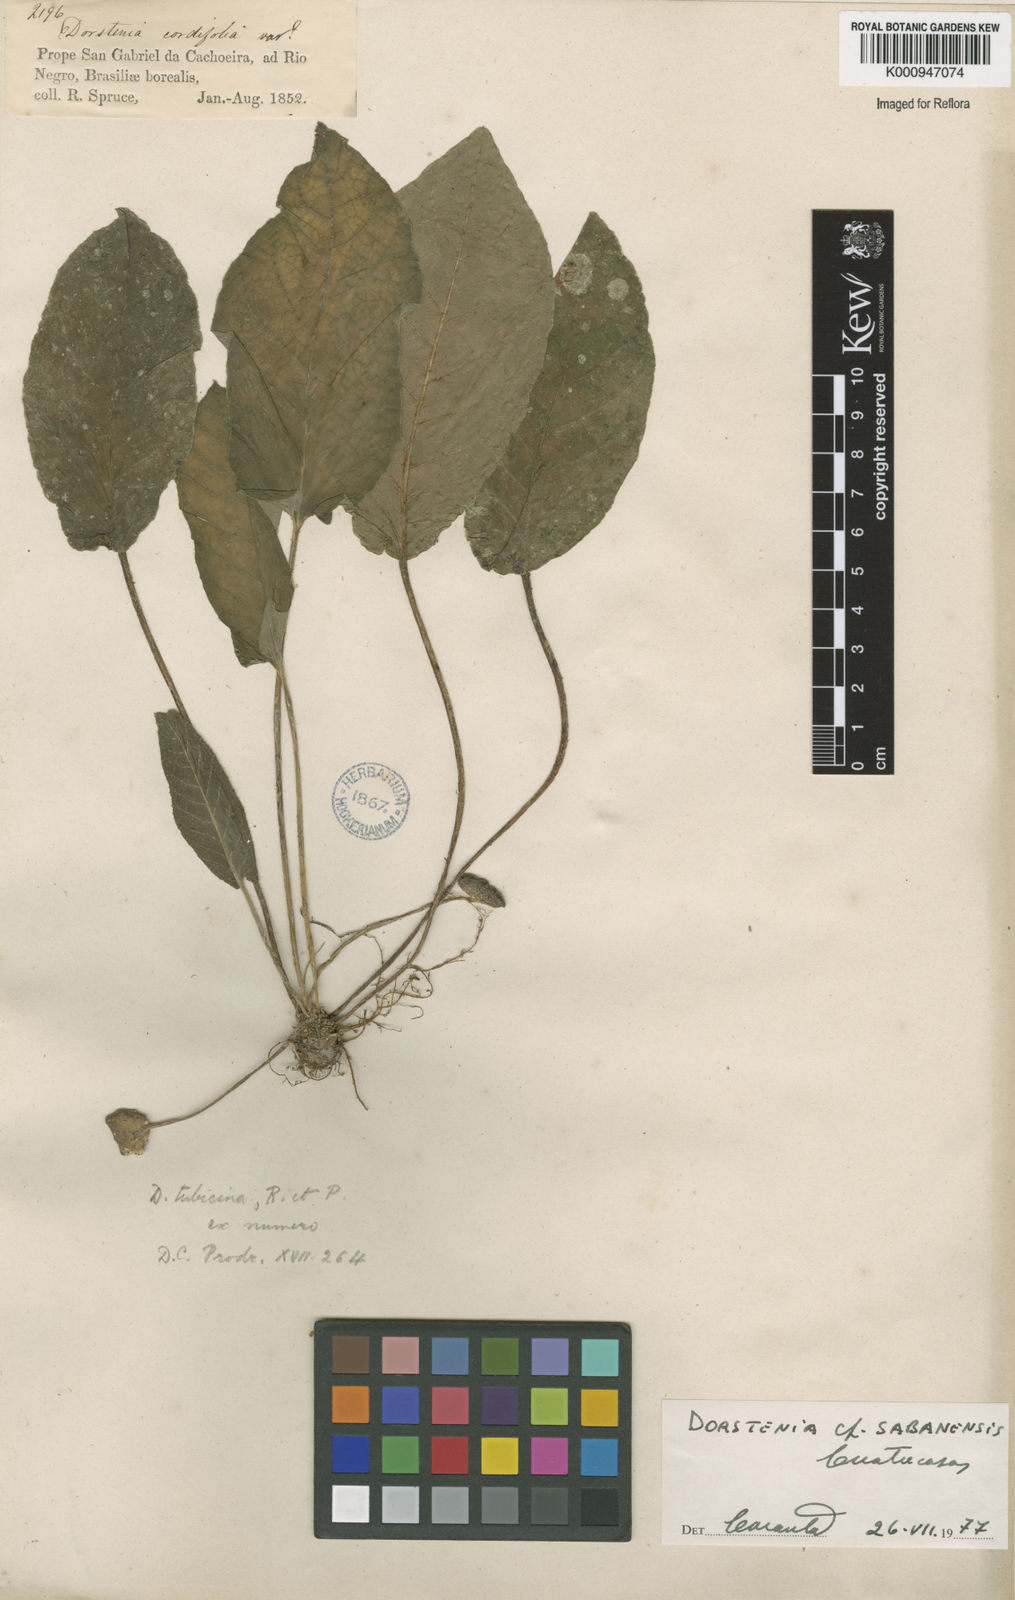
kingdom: Plantae
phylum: Tracheophyta
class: Magnoliopsida
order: Rosales
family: Moraceae
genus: Dorstenia
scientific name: Dorstenia brasiliensis
